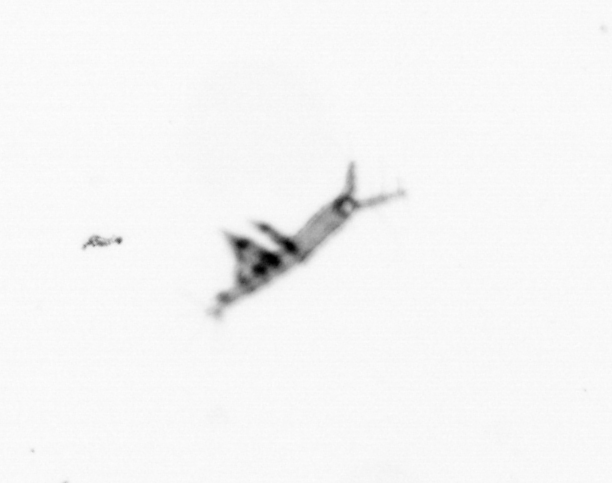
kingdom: Animalia
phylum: Arthropoda
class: Copepoda
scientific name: Copepoda
